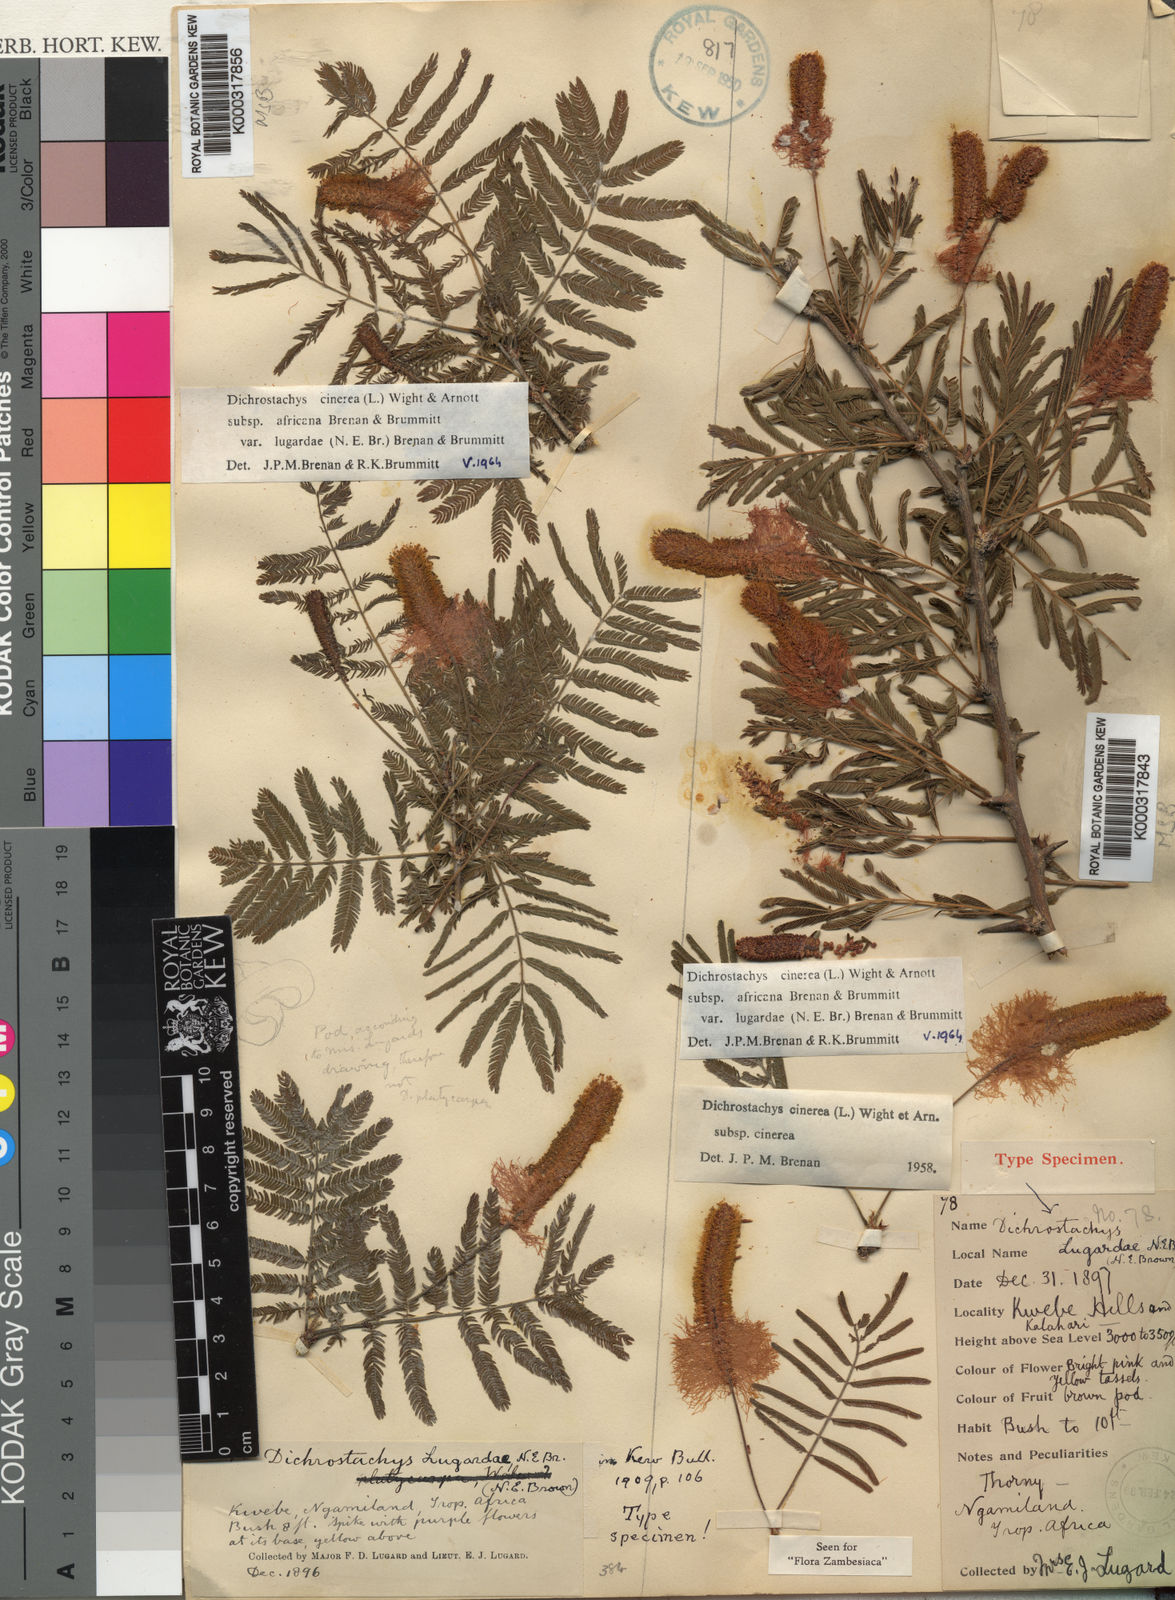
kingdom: Plantae
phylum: Tracheophyta
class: Magnoliopsida
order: Fabales
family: Fabaceae
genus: Dichrostachys
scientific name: Dichrostachys cinerea
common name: Sicklebush
